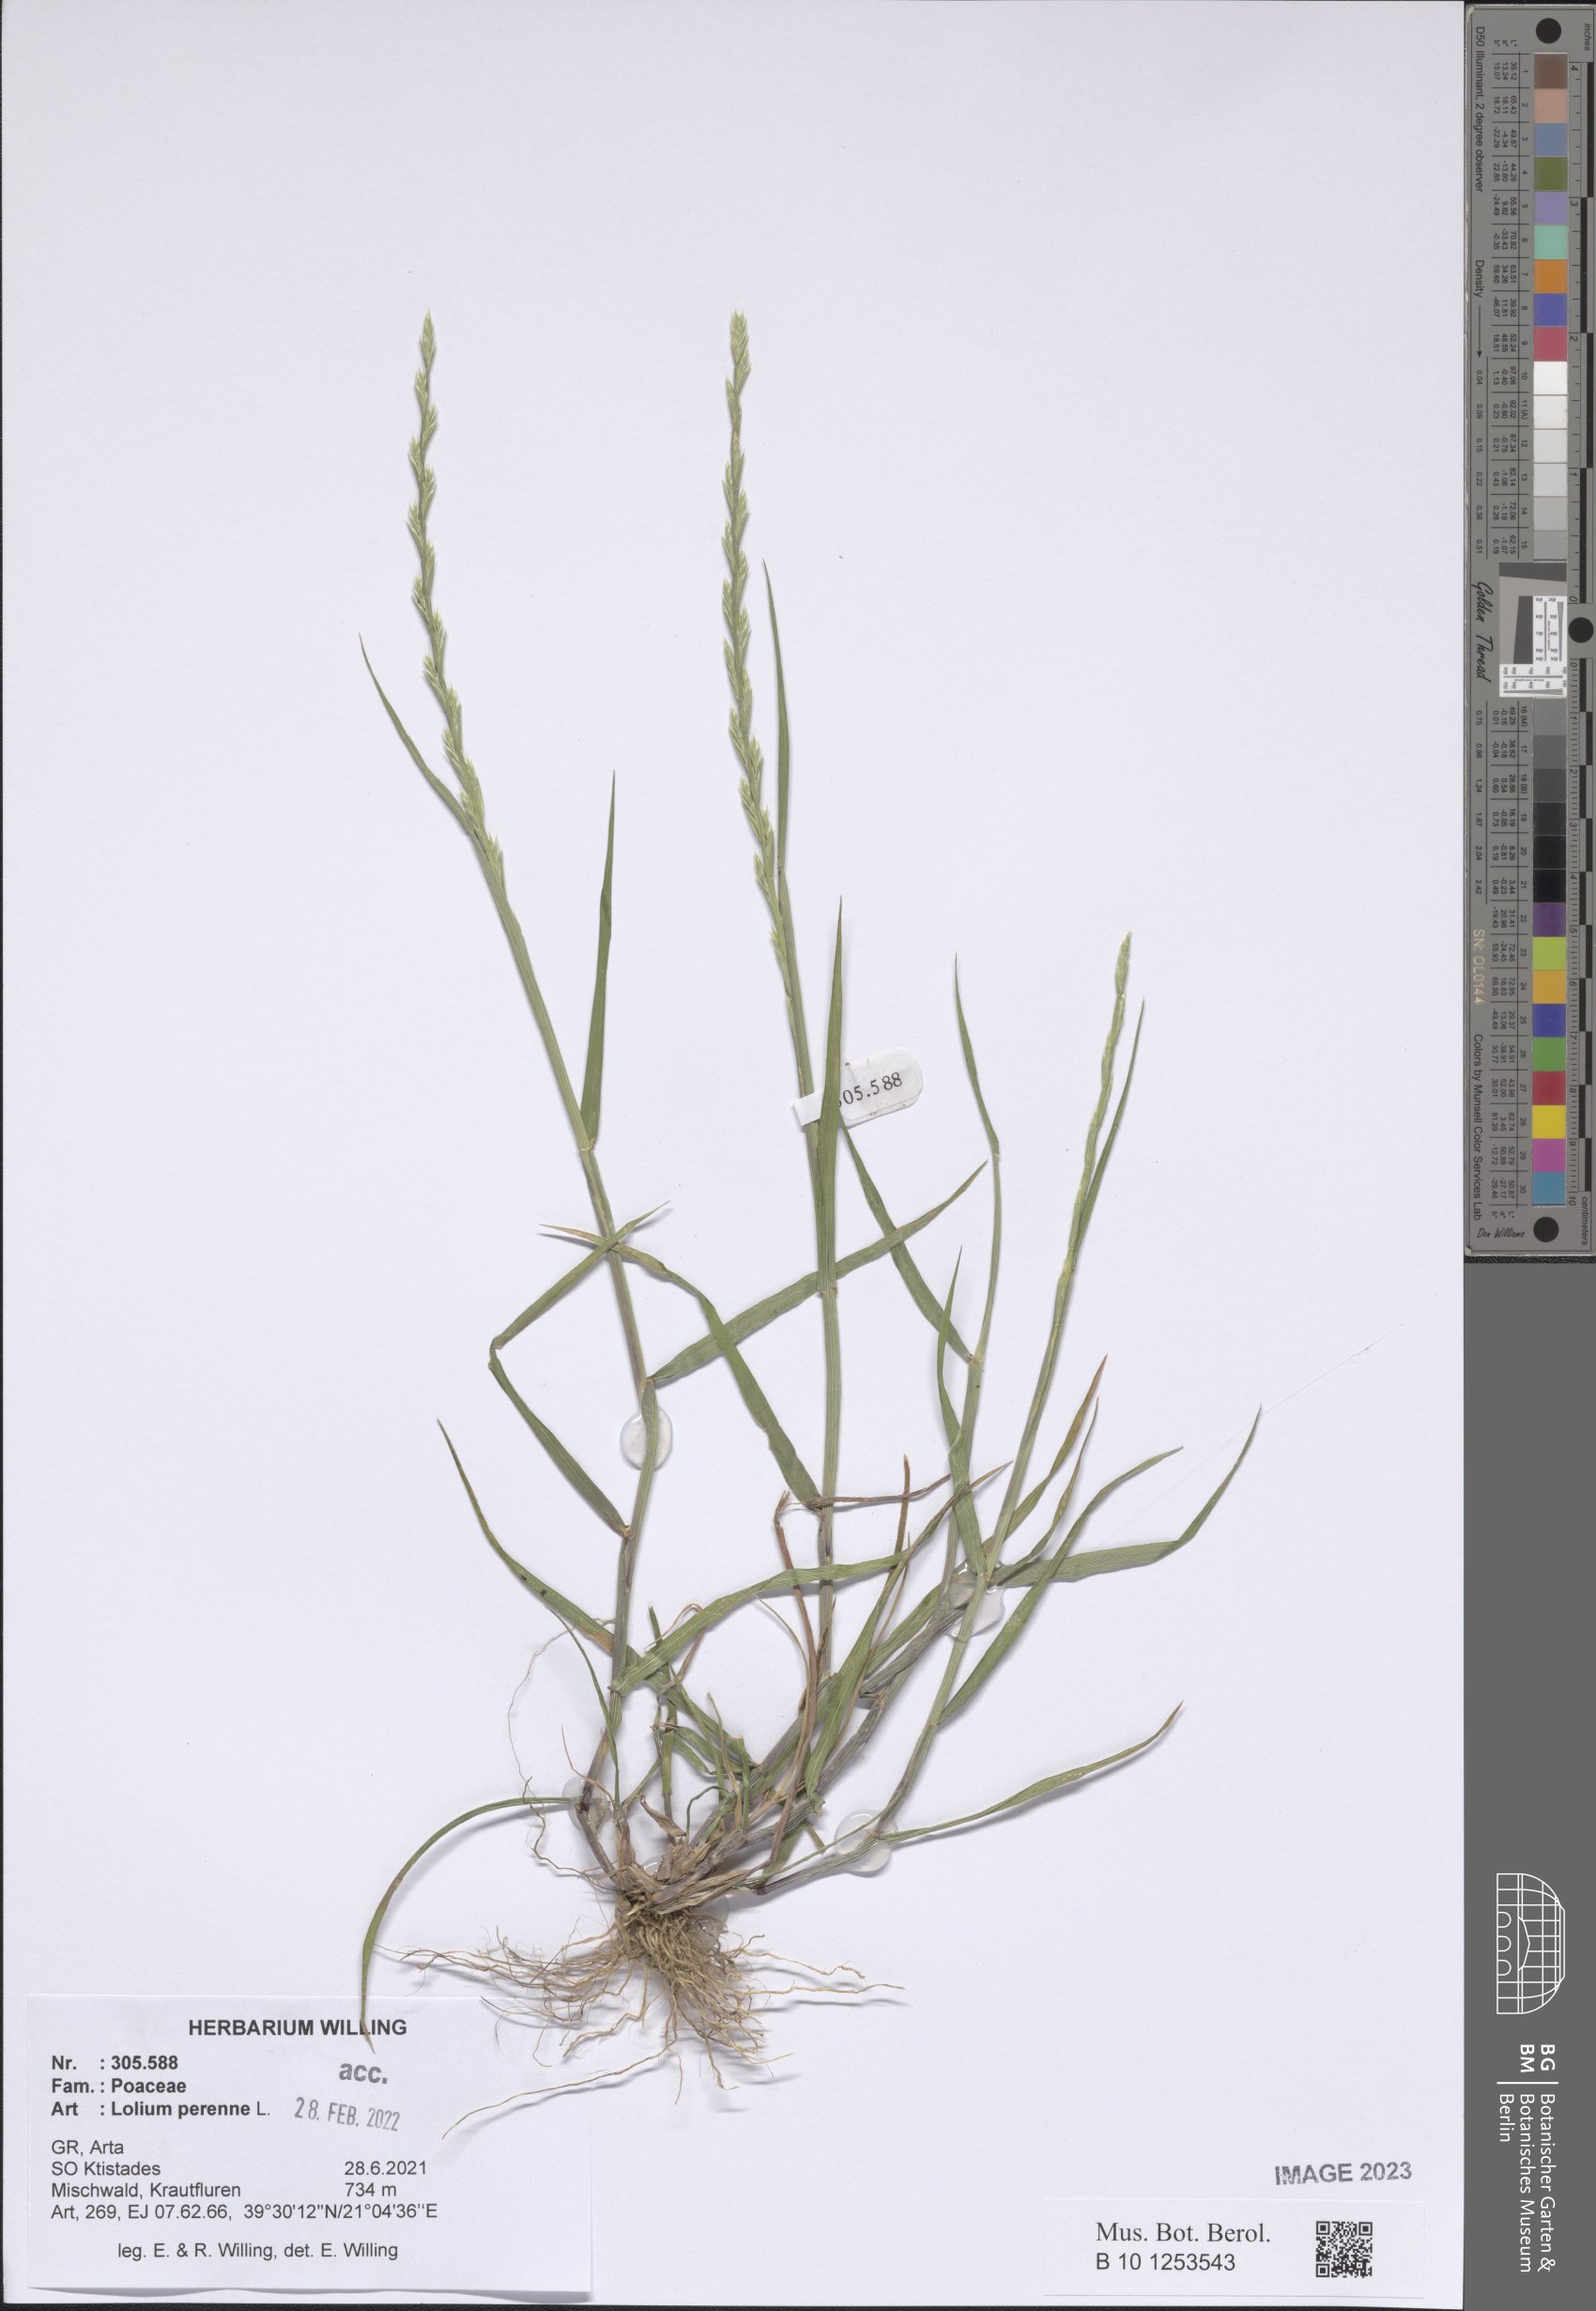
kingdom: Plantae
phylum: Tracheophyta
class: Liliopsida
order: Poales
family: Poaceae
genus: Lolium
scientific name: Lolium perenne
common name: Perennial ryegrass
